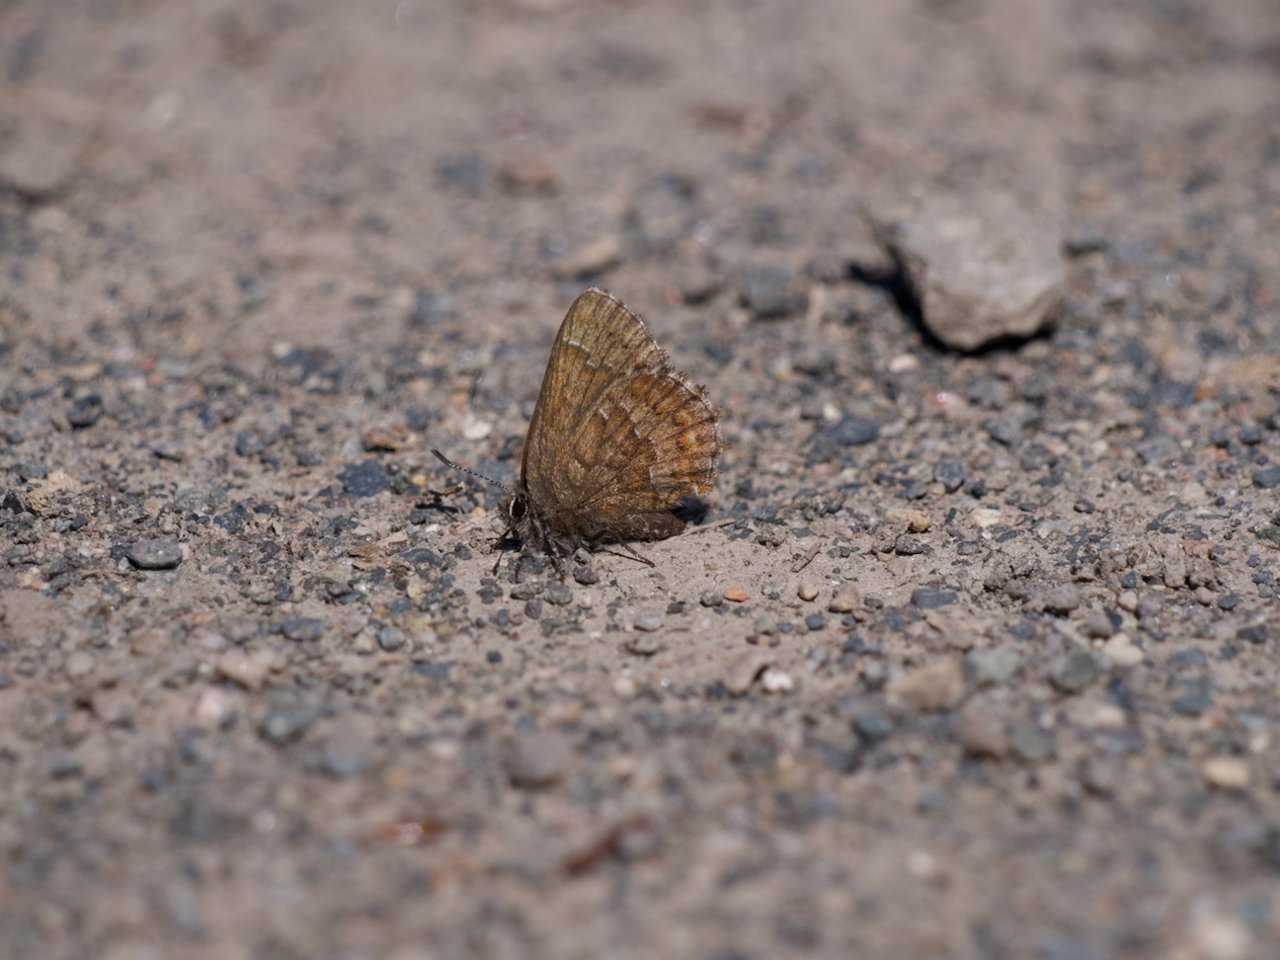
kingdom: Animalia
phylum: Arthropoda
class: Insecta
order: Lepidoptera
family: Lycaenidae
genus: Incisalia
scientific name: Incisalia niphon
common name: Eastern Pine Elfin
